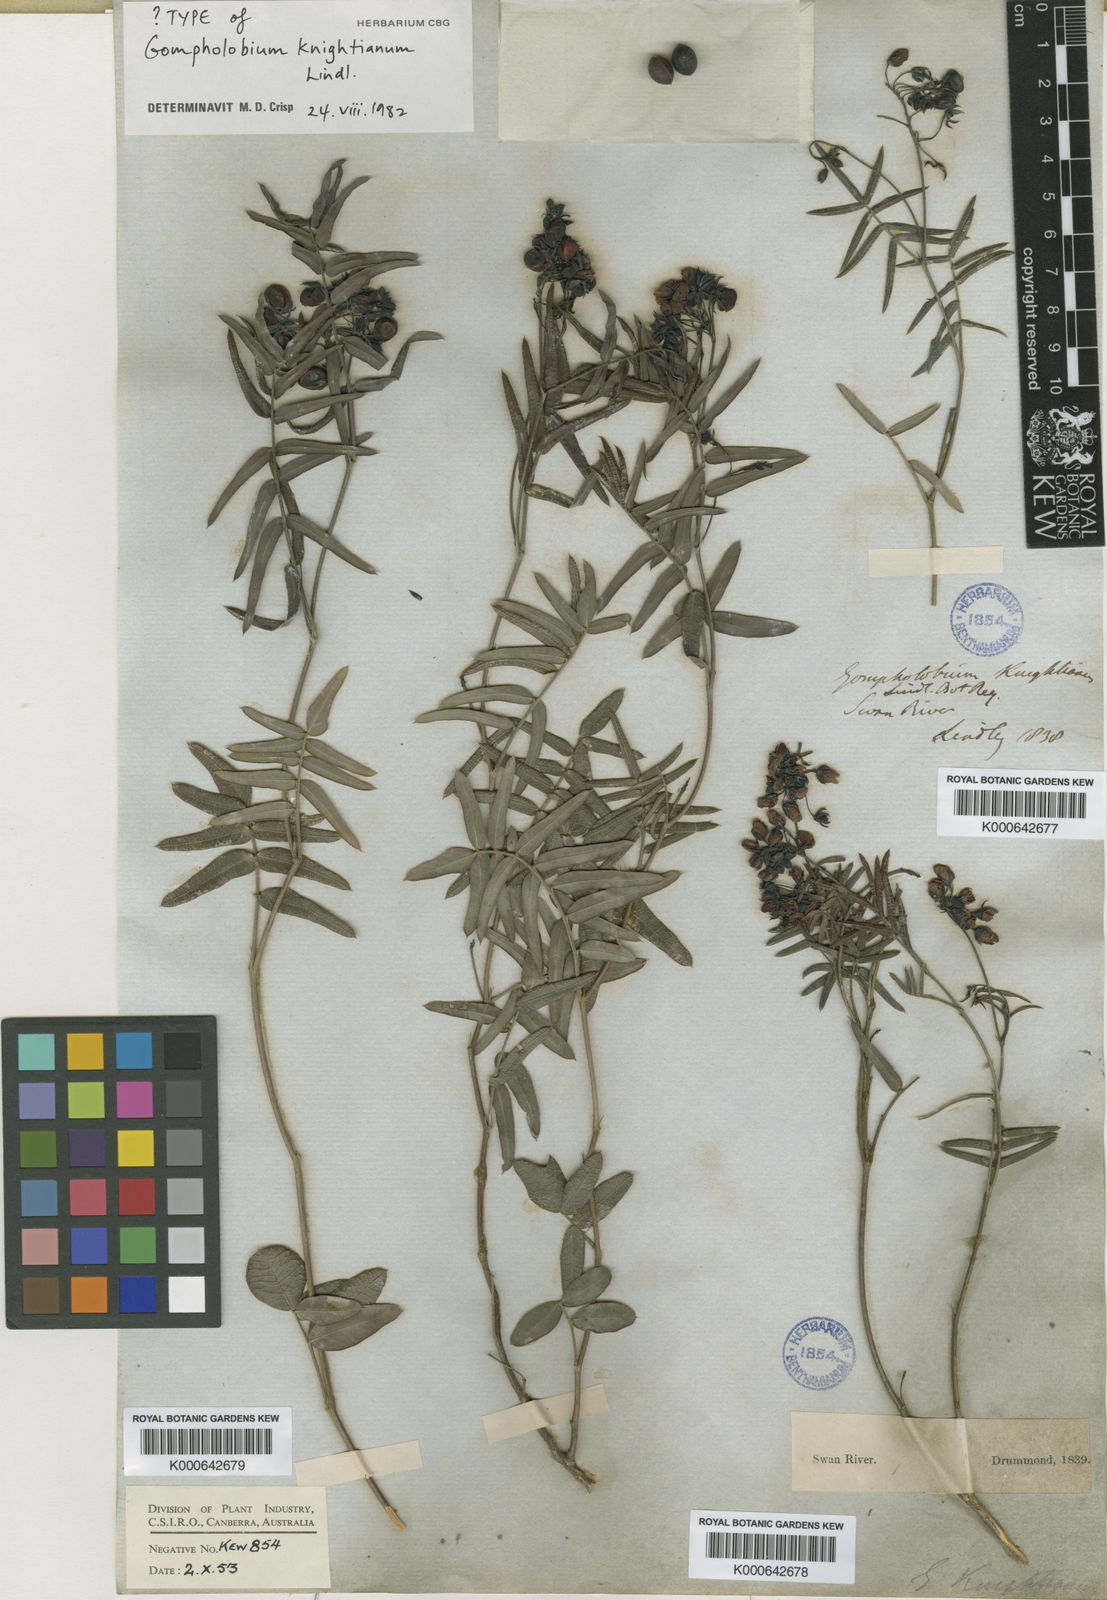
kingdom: Plantae
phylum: Tracheophyta
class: Magnoliopsida
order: Fabales
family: Fabaceae
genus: Gompholobium
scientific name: Gompholobium knightianum
